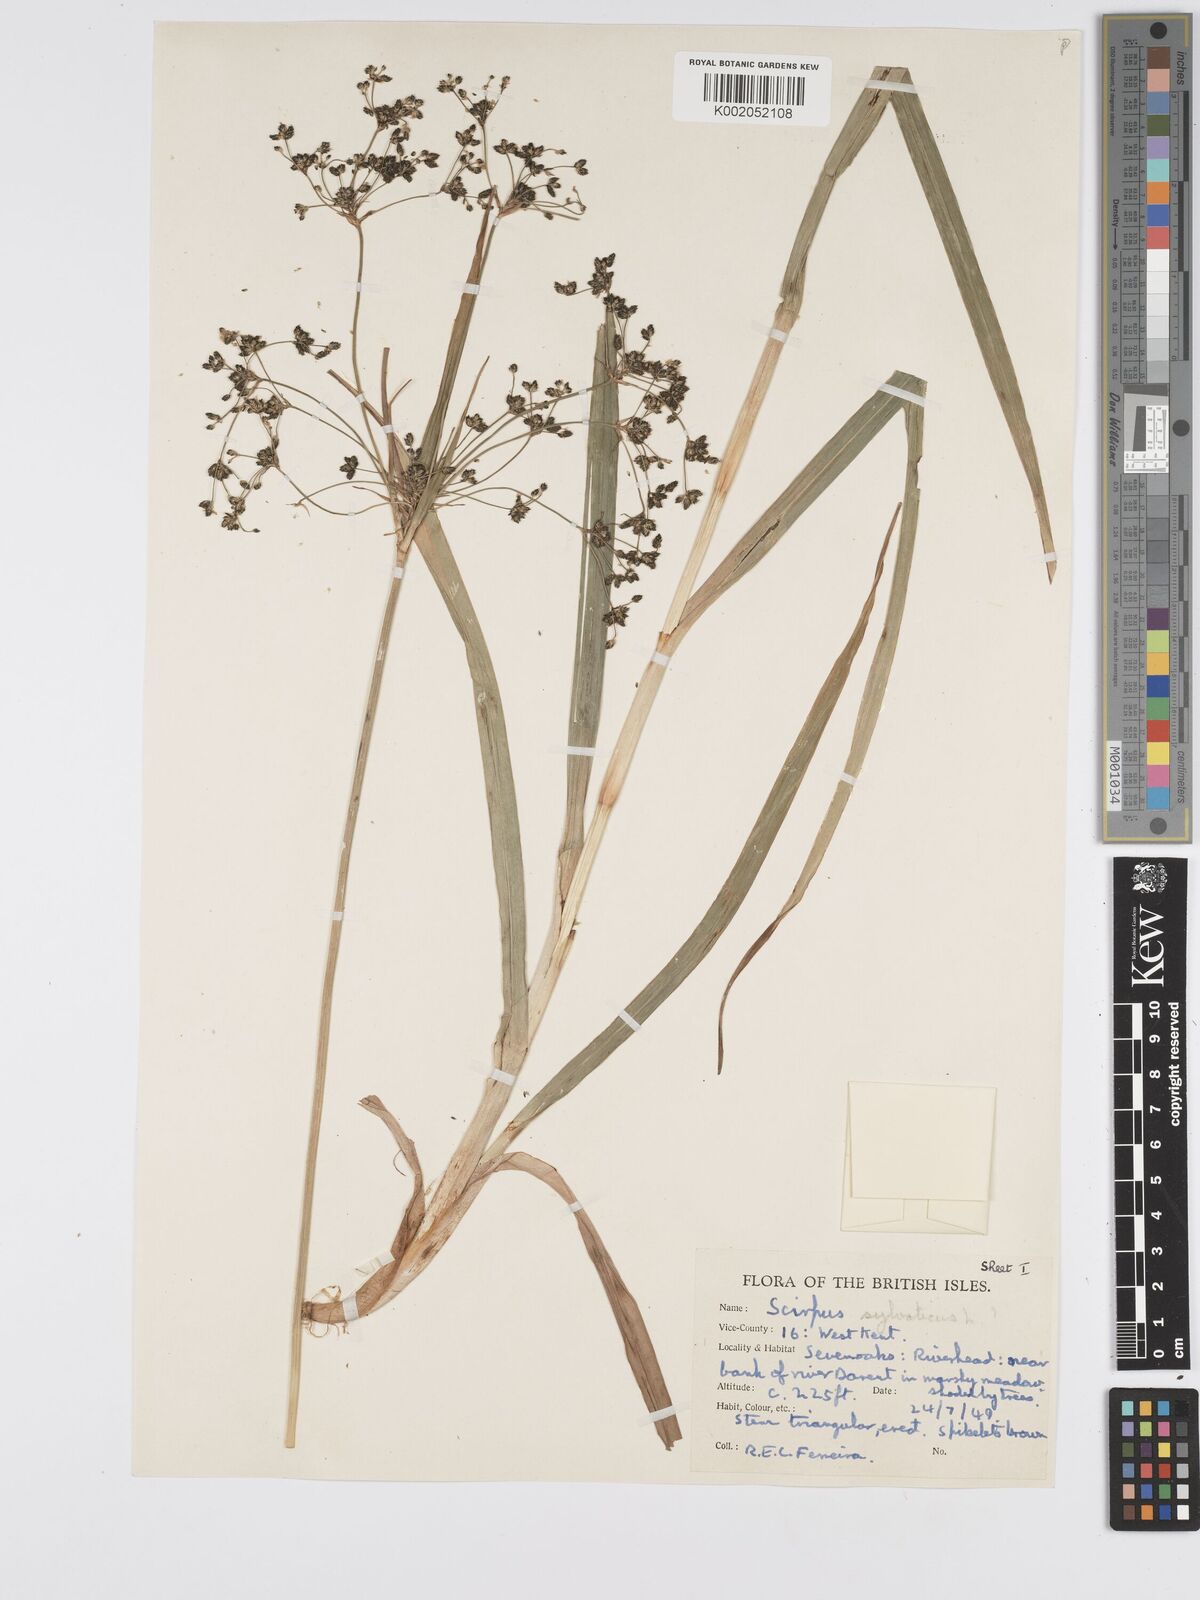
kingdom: Plantae
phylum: Tracheophyta
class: Liliopsida
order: Poales
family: Cyperaceae
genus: Scirpus
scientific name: Scirpus sylvaticus
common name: Wood club-rush
